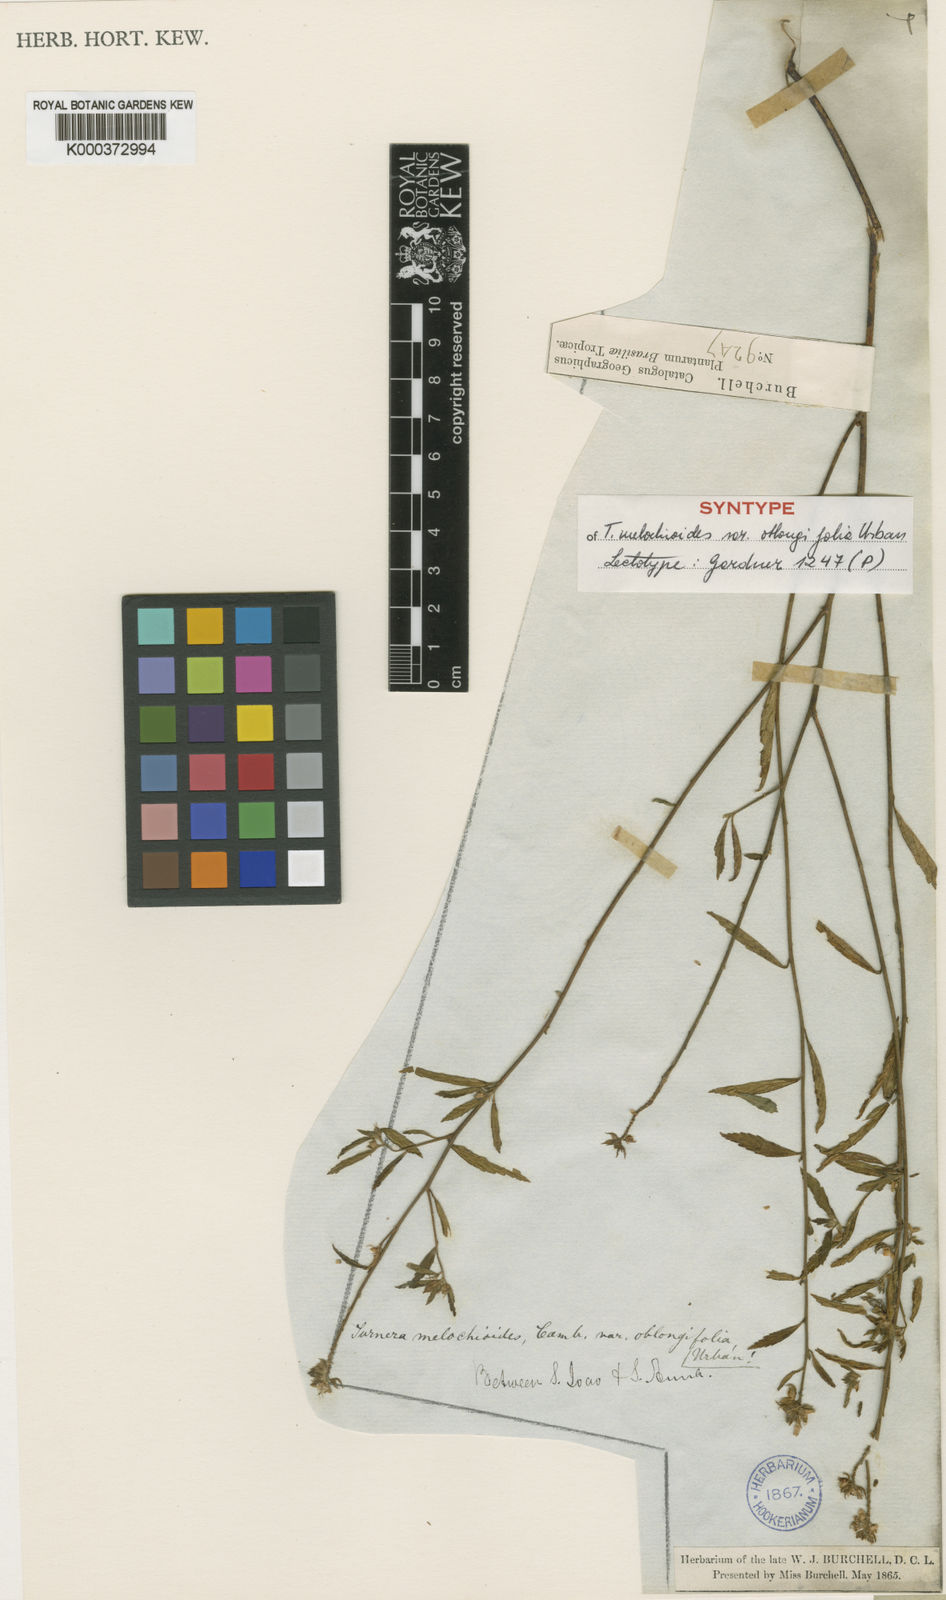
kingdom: Plantae
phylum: Tracheophyta
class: Magnoliopsida
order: Malpighiales
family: Turneraceae
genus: Turnera
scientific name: Turnera arenaria
